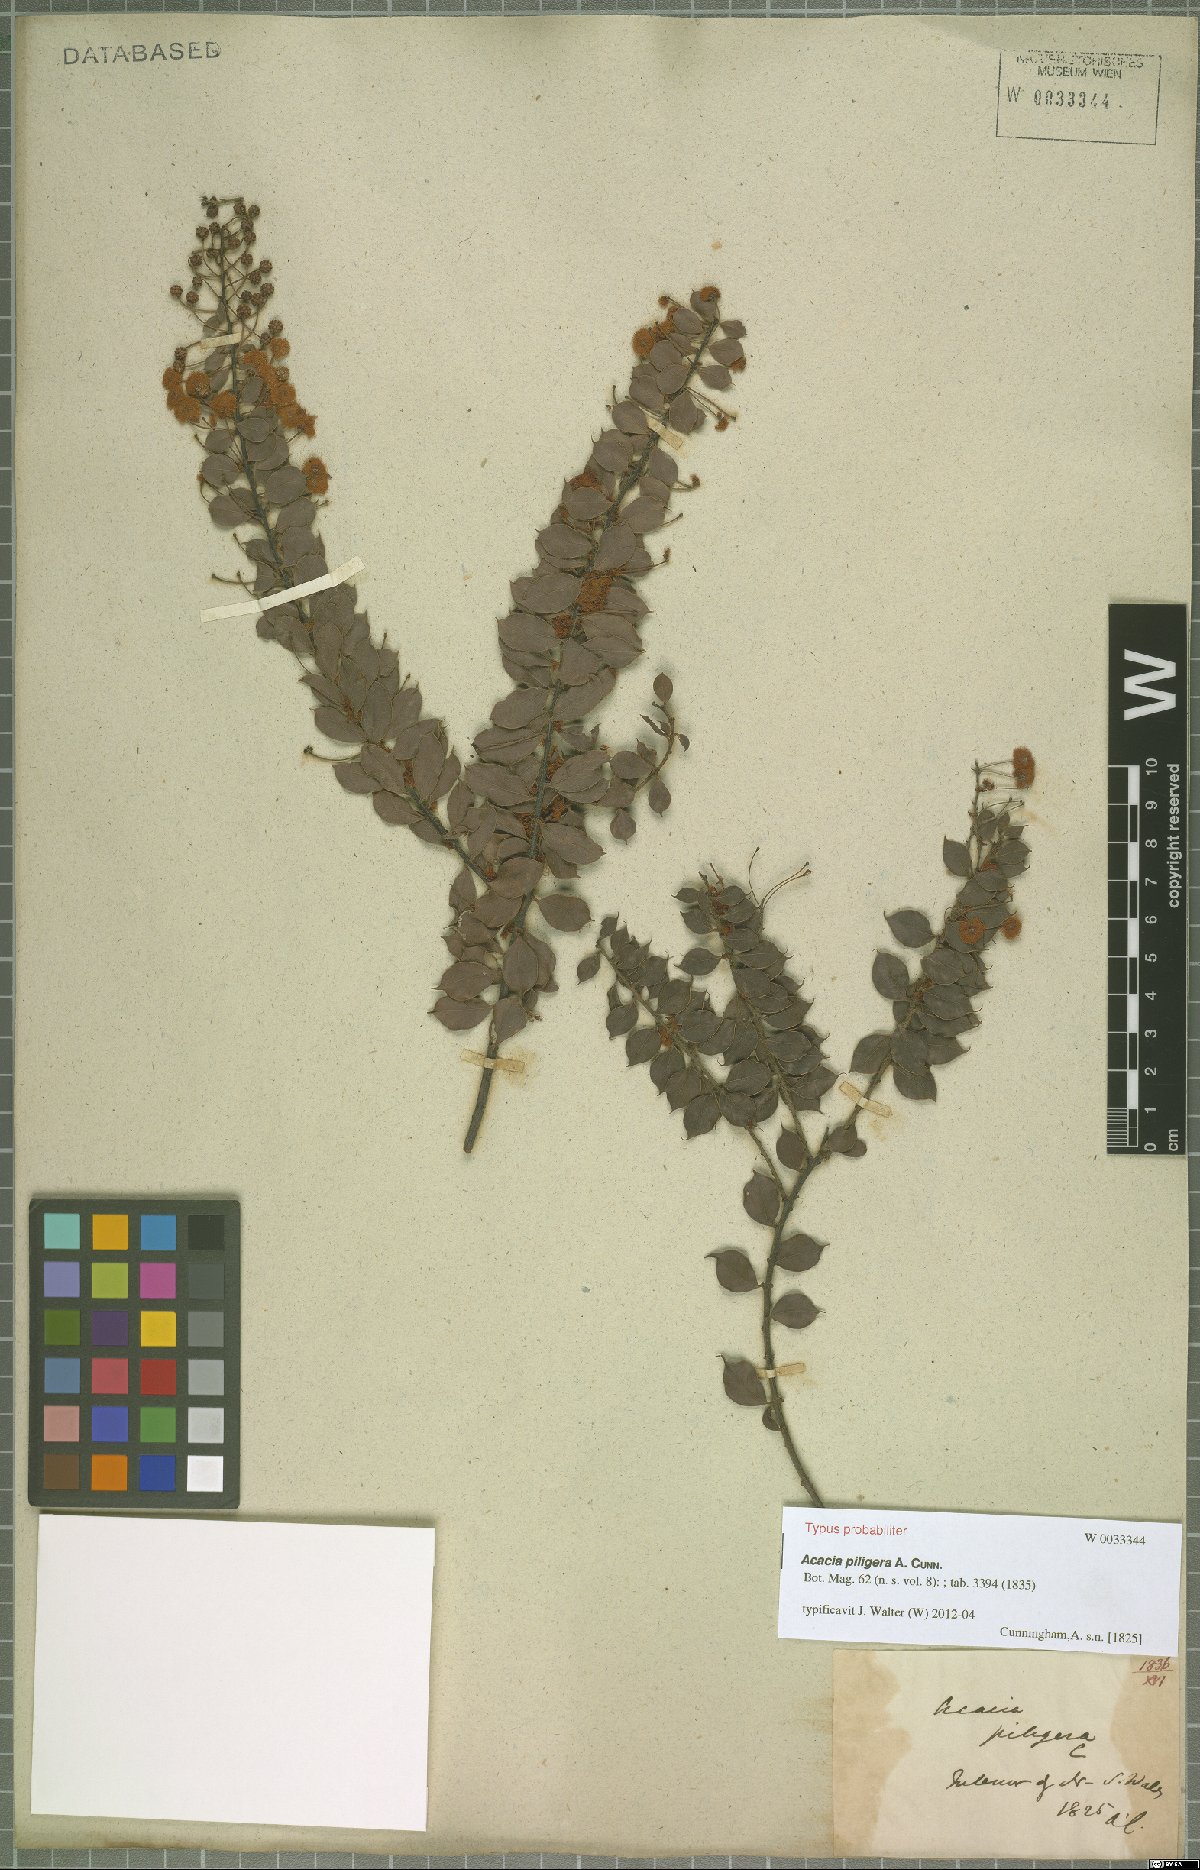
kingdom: Plantae
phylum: Tracheophyta
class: Magnoliopsida
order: Fabales
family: Fabaceae
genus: Acacia
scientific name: Acacia piligera
